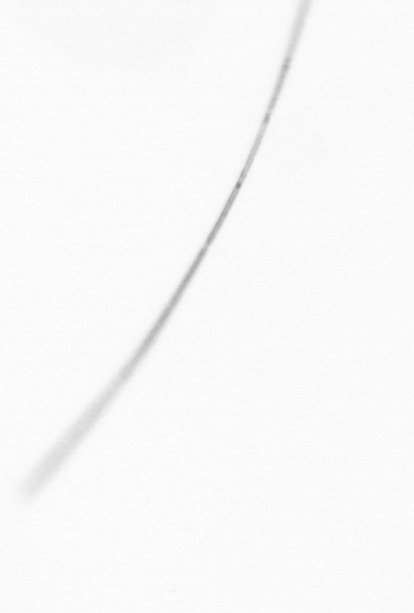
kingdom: Chromista
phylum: Ochrophyta
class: Bacillariophyceae
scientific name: Bacillariophyceae
